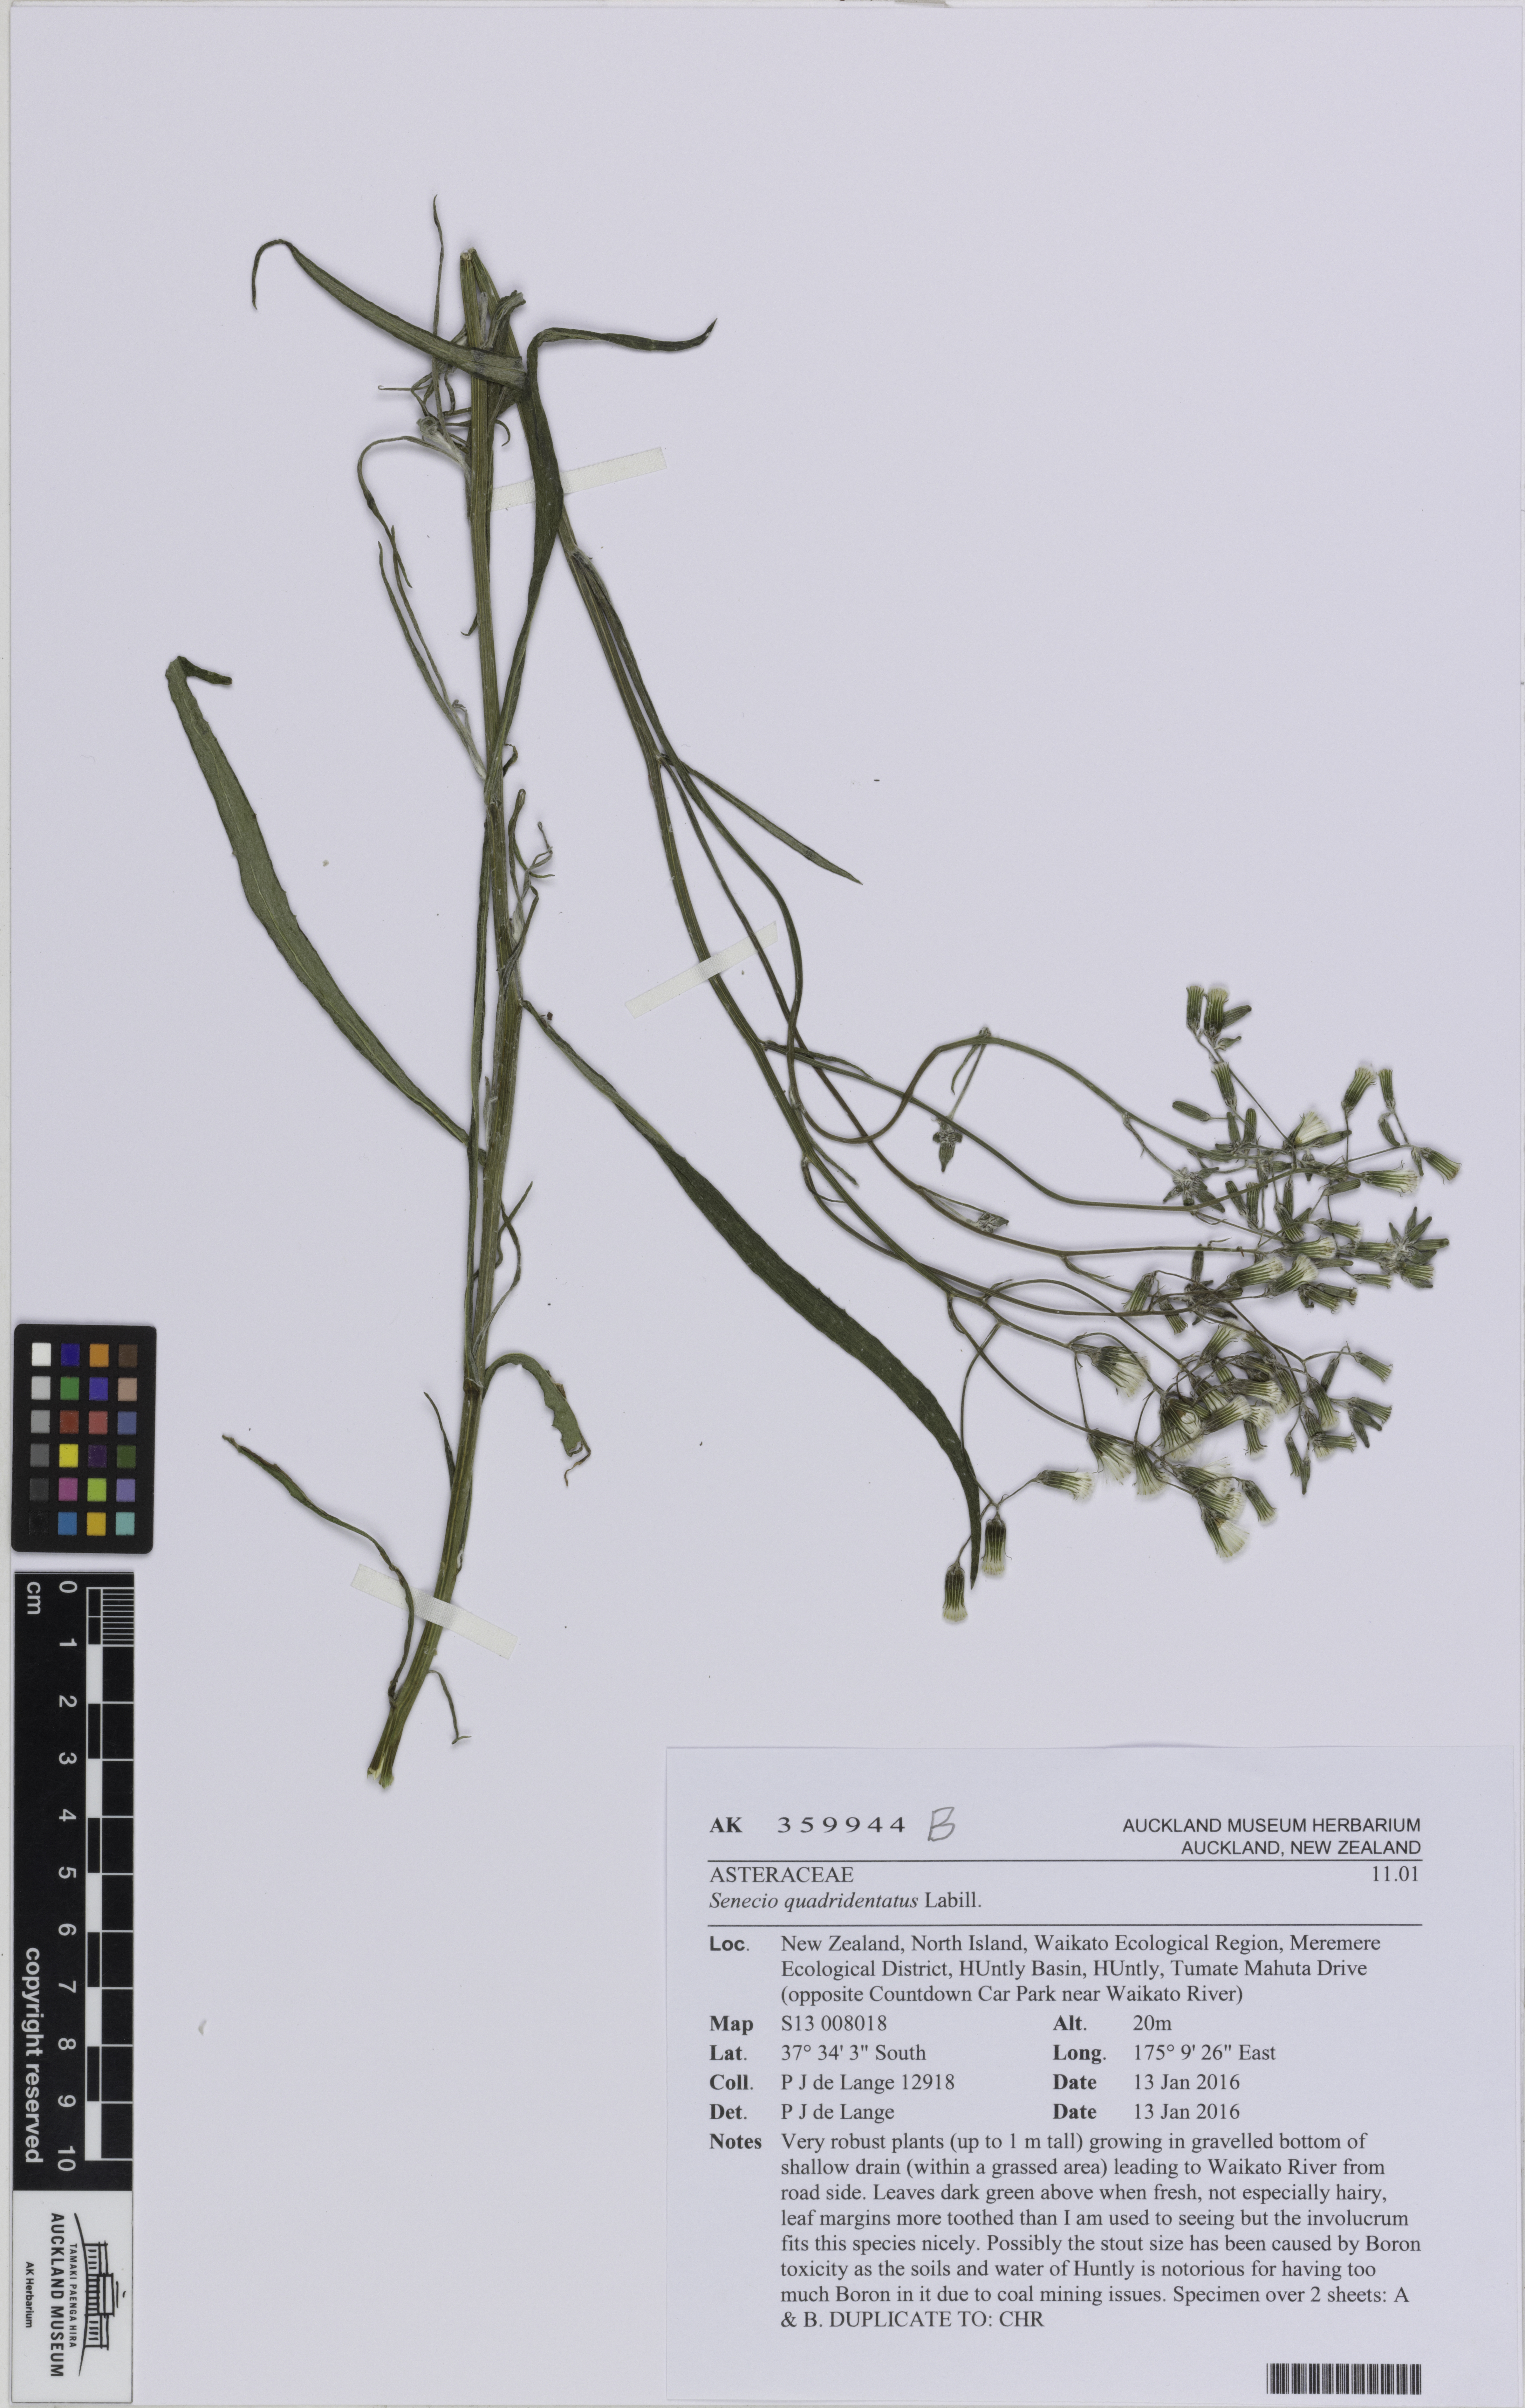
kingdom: Plantae
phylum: Tracheophyta
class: Magnoliopsida
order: Asterales
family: Asteraceae
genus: Senecio
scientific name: Senecio quadridentatus
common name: Cotton fireweed
